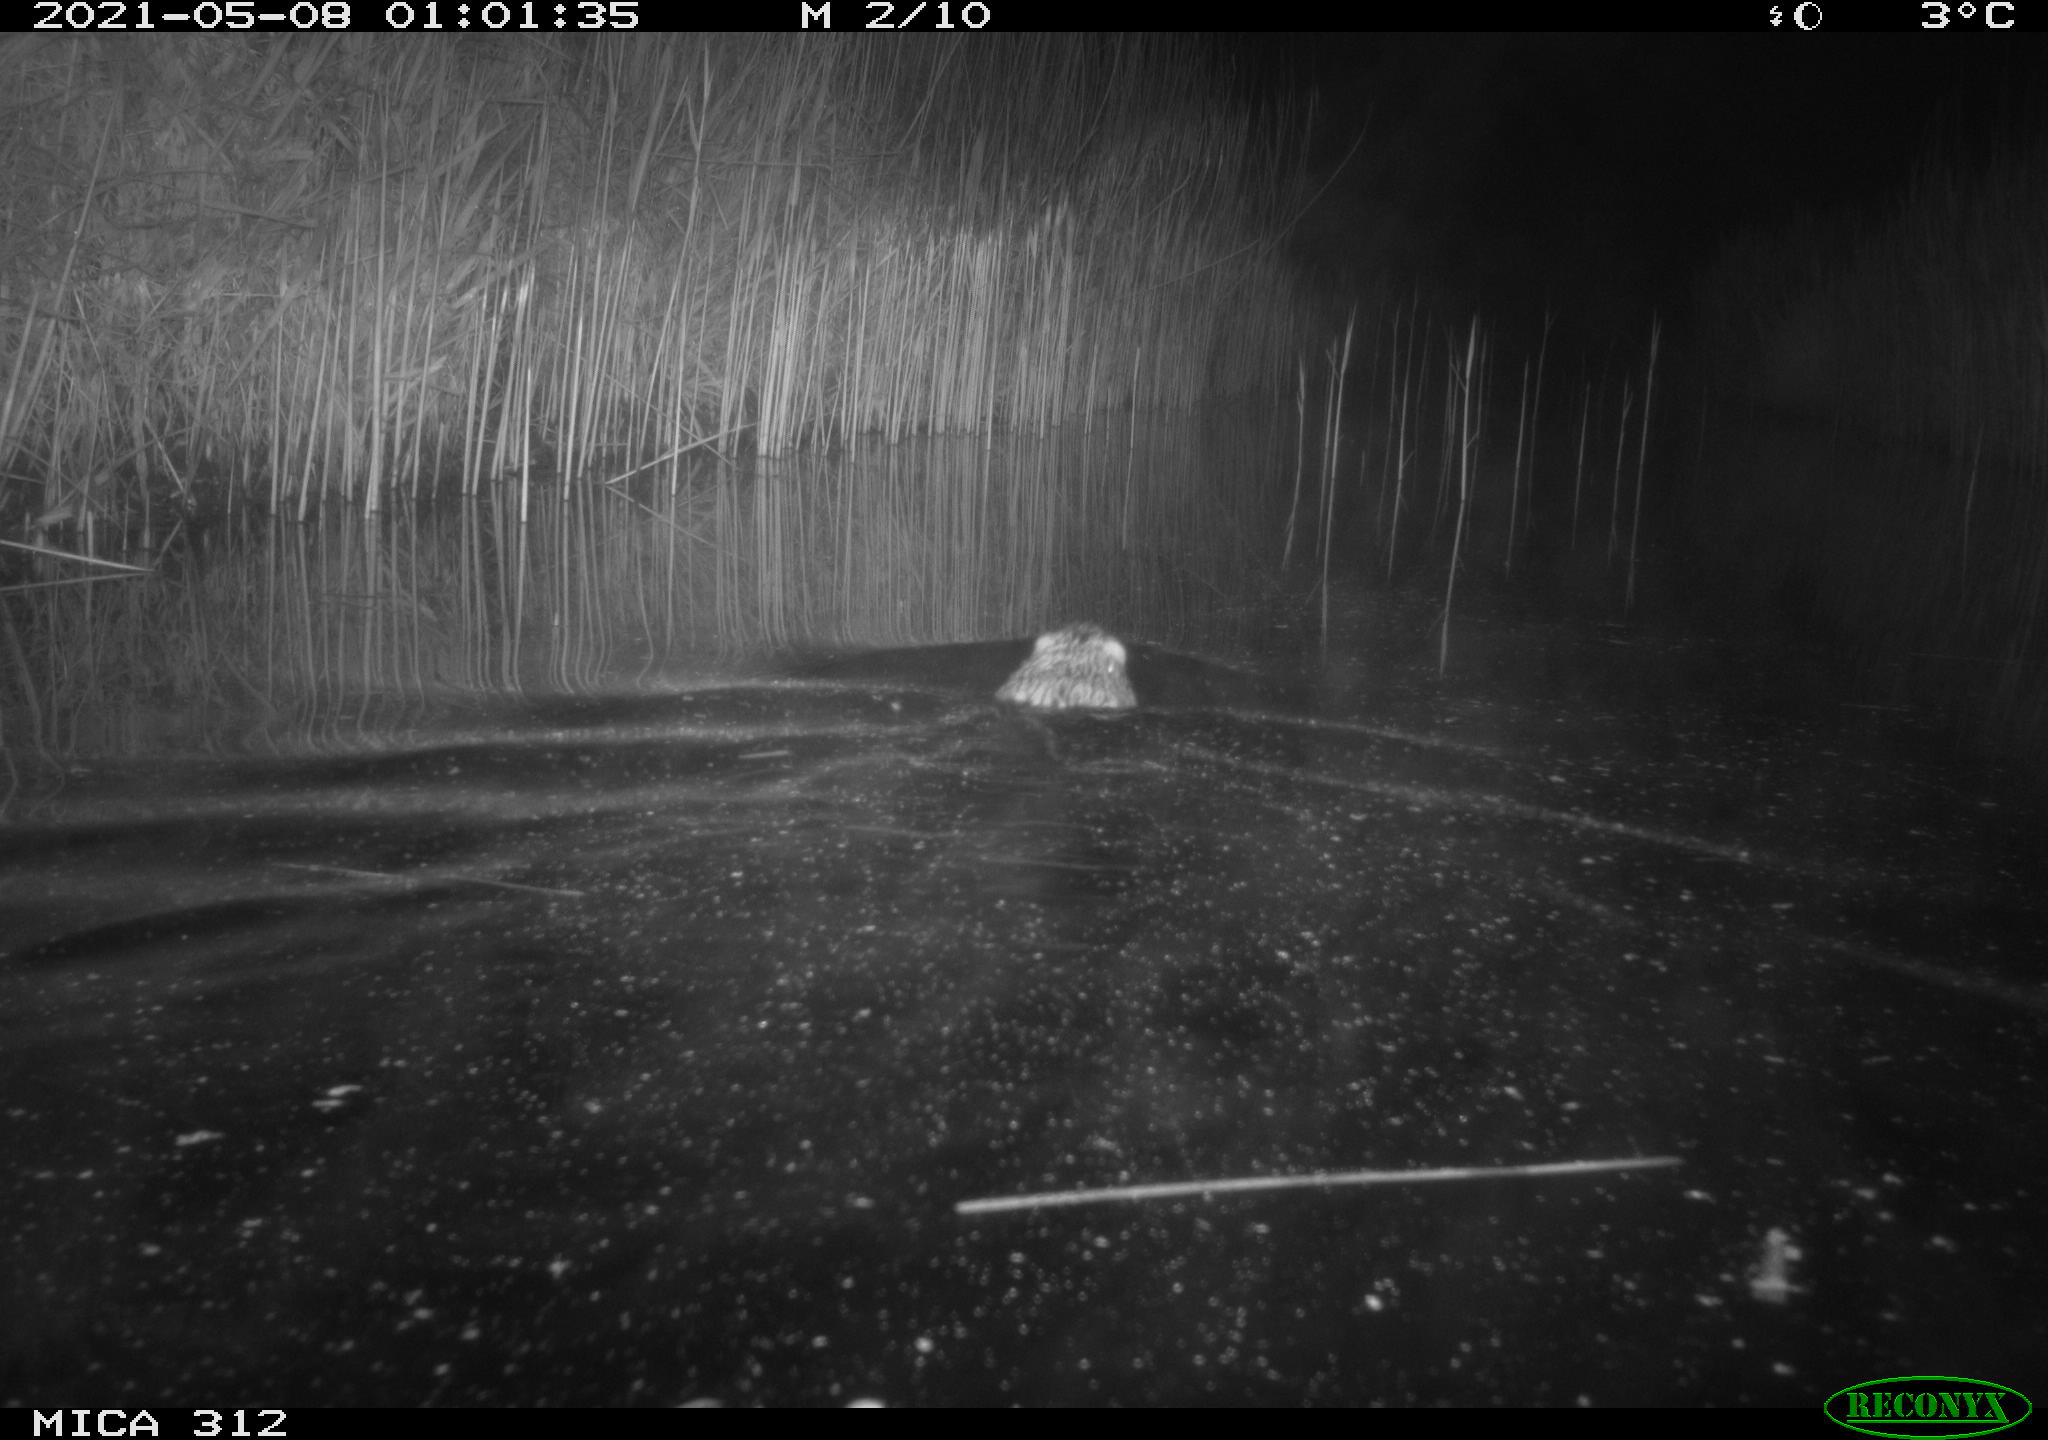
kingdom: Animalia
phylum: Chordata
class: Mammalia
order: Rodentia
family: Cricetidae
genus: Ondatra
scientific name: Ondatra zibethicus
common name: Muskrat
